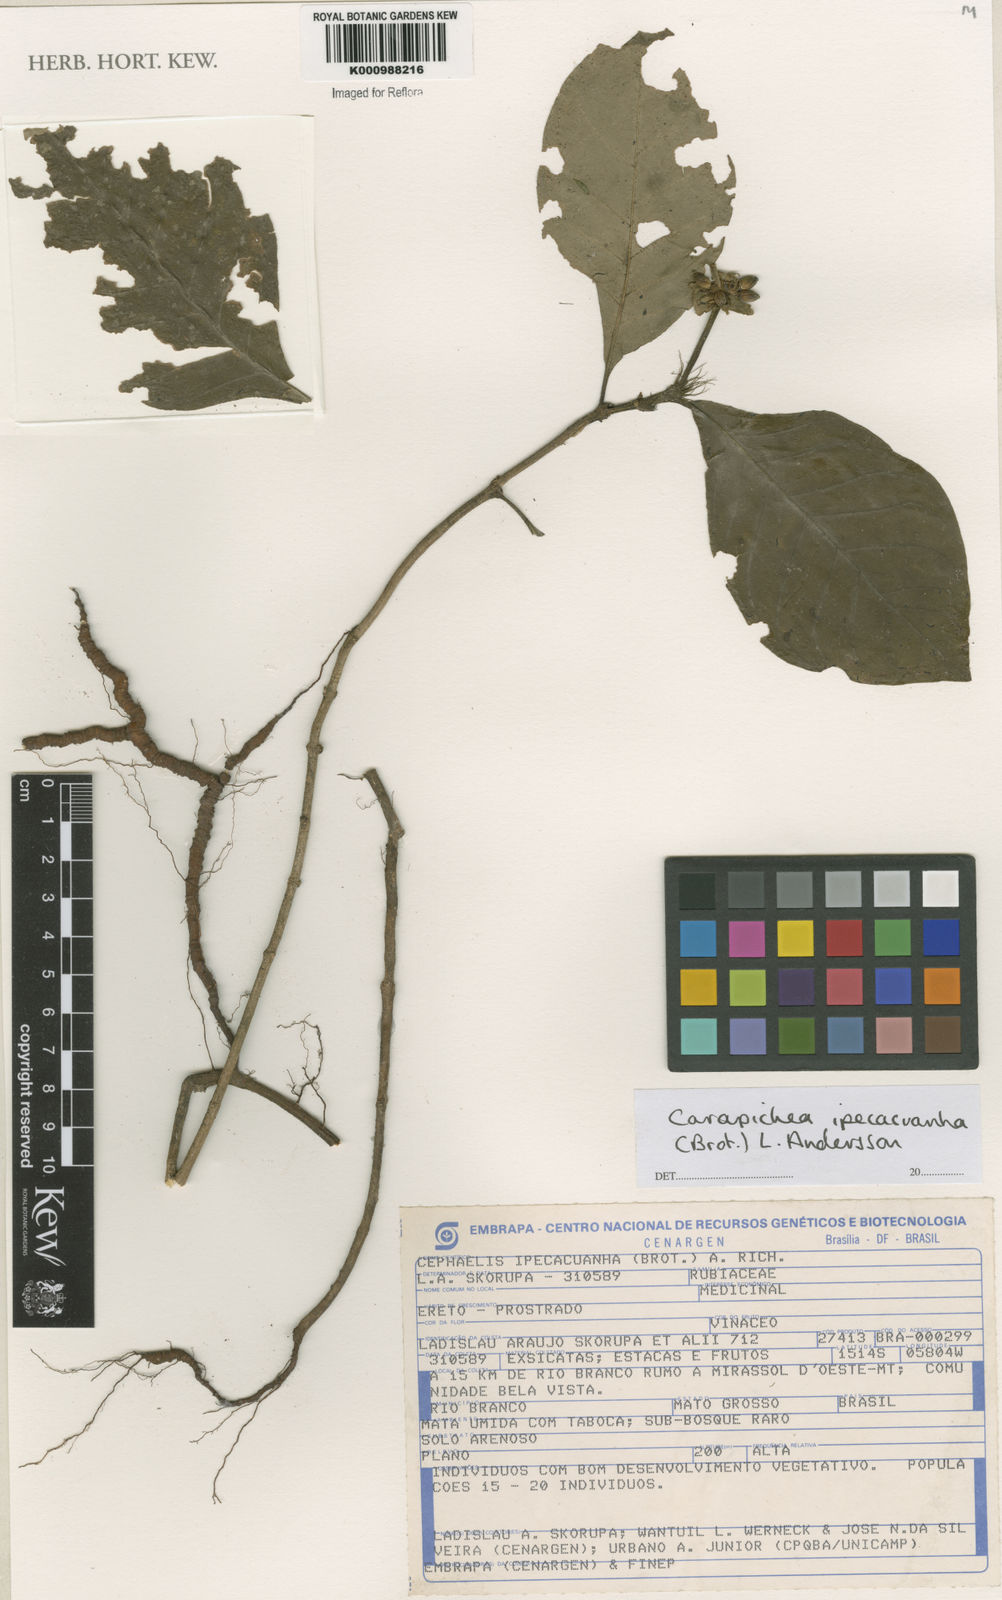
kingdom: Plantae
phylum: Tracheophyta
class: Magnoliopsida
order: Gentianales
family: Rubiaceae
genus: Carapichea
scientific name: Carapichea ipecacuanha
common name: Ipecac
